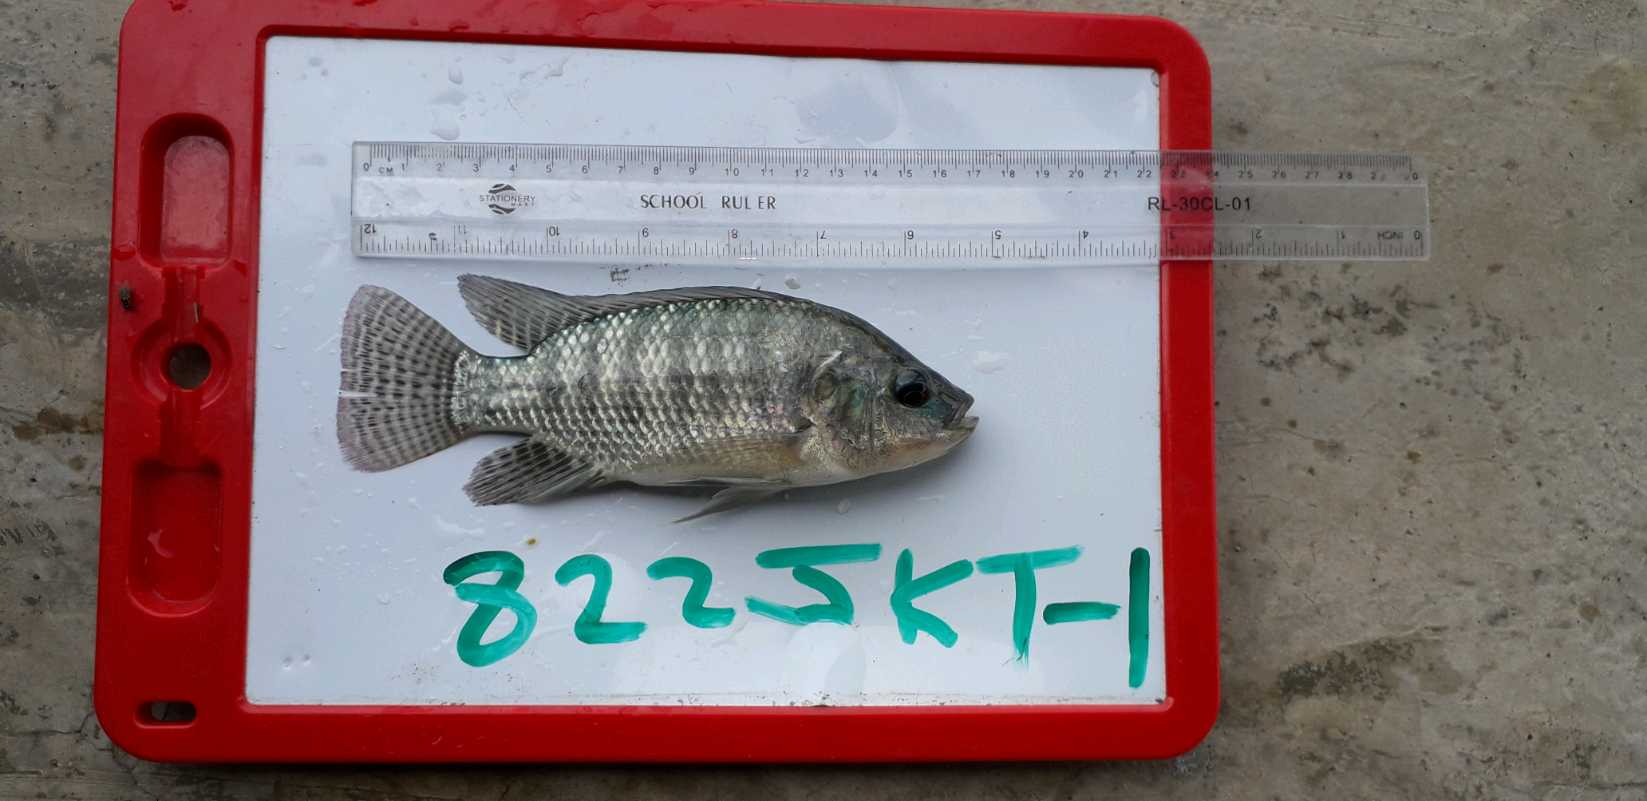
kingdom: Animalia
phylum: Chordata
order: Perciformes
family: Cichlidae
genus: Oreochromis
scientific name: Oreochromis niloticus
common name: Nile tilapia
